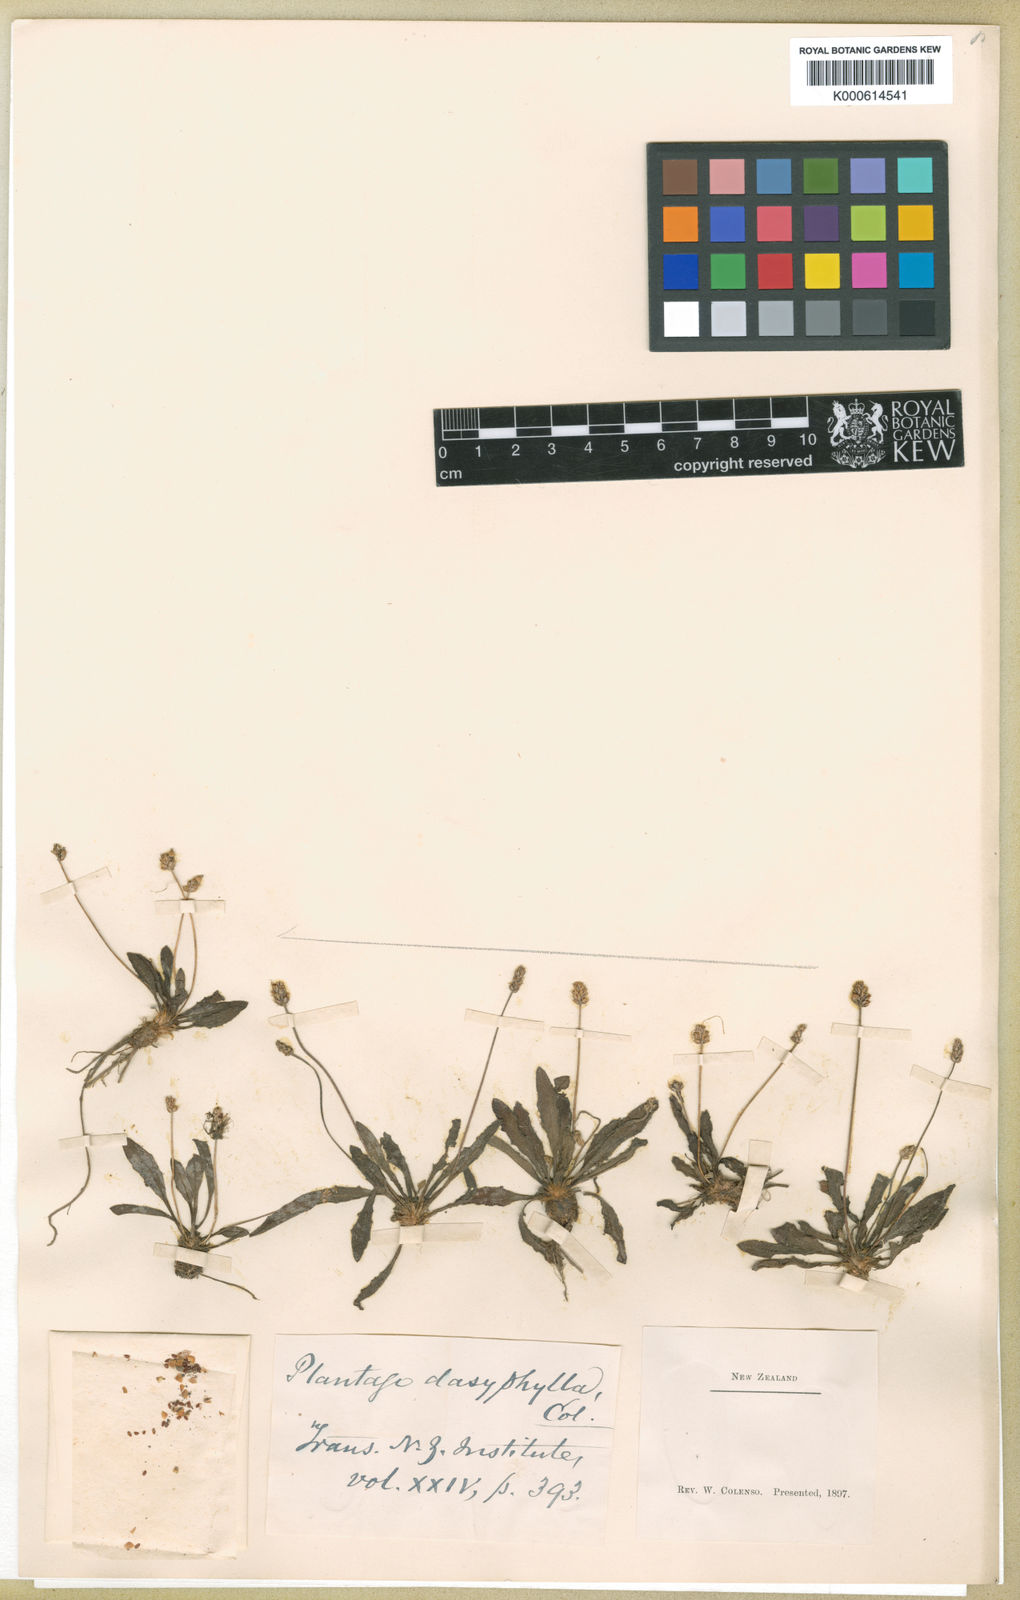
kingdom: Plantae
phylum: Tracheophyta
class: Magnoliopsida
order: Lamiales
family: Plantaginaceae
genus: Plantago
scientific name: Plantago raoulii
